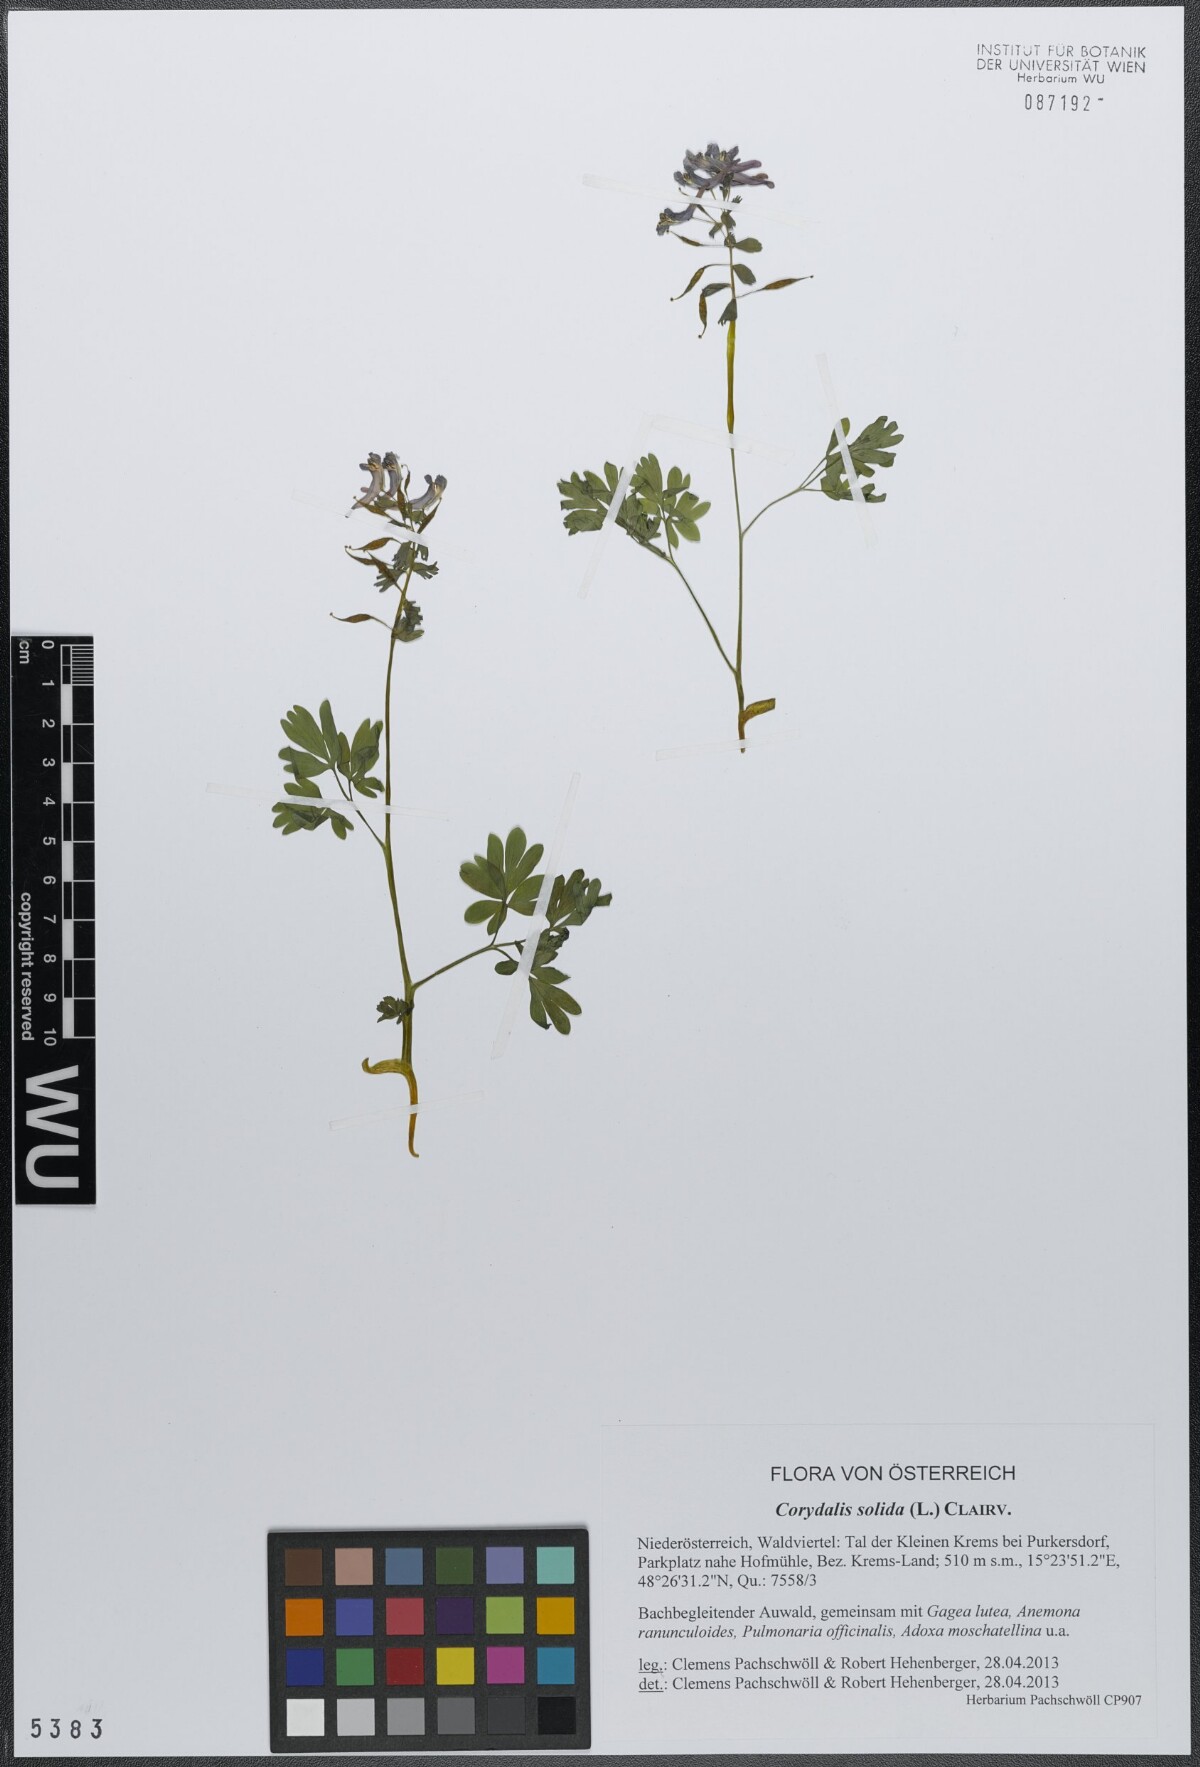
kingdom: Plantae
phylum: Tracheophyta
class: Magnoliopsida
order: Ranunculales
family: Papaveraceae
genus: Corydalis
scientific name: Corydalis solida
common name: Bird-in-a-bush
